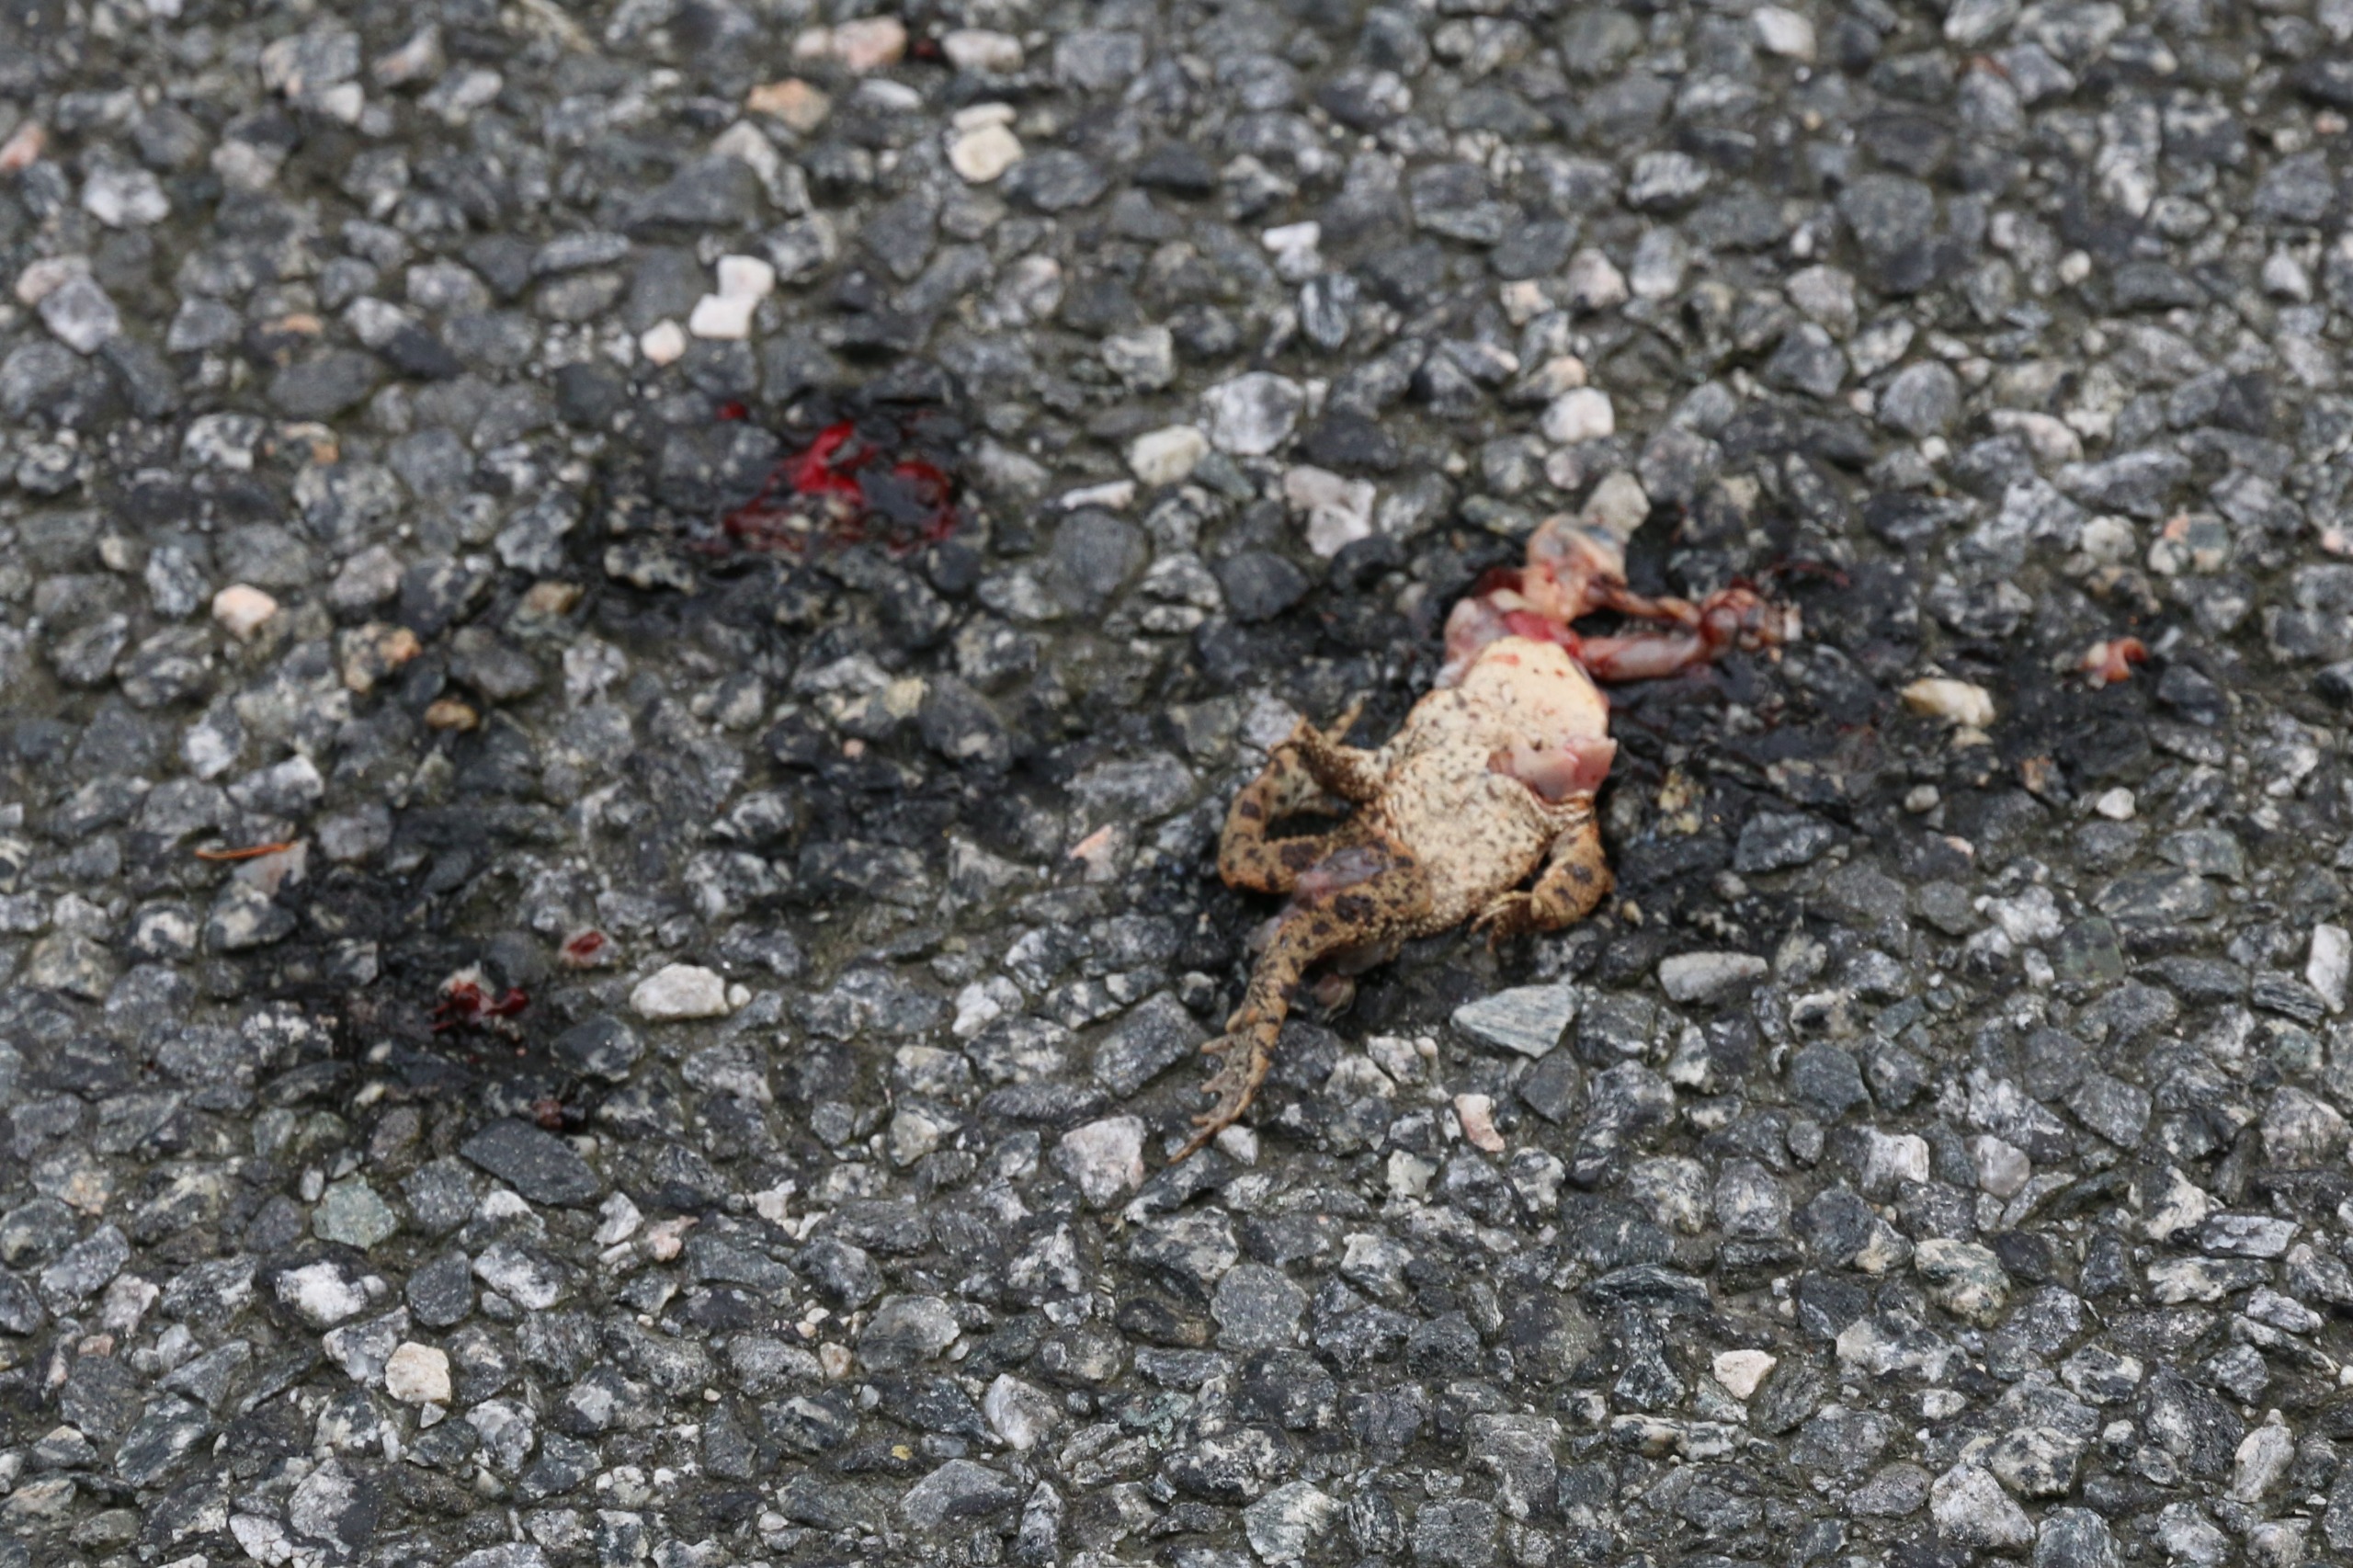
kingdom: Animalia
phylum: Chordata
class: Amphibia
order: Anura
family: Bufonidae
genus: Bufo
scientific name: Bufo bufo
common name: Skrubtudse
